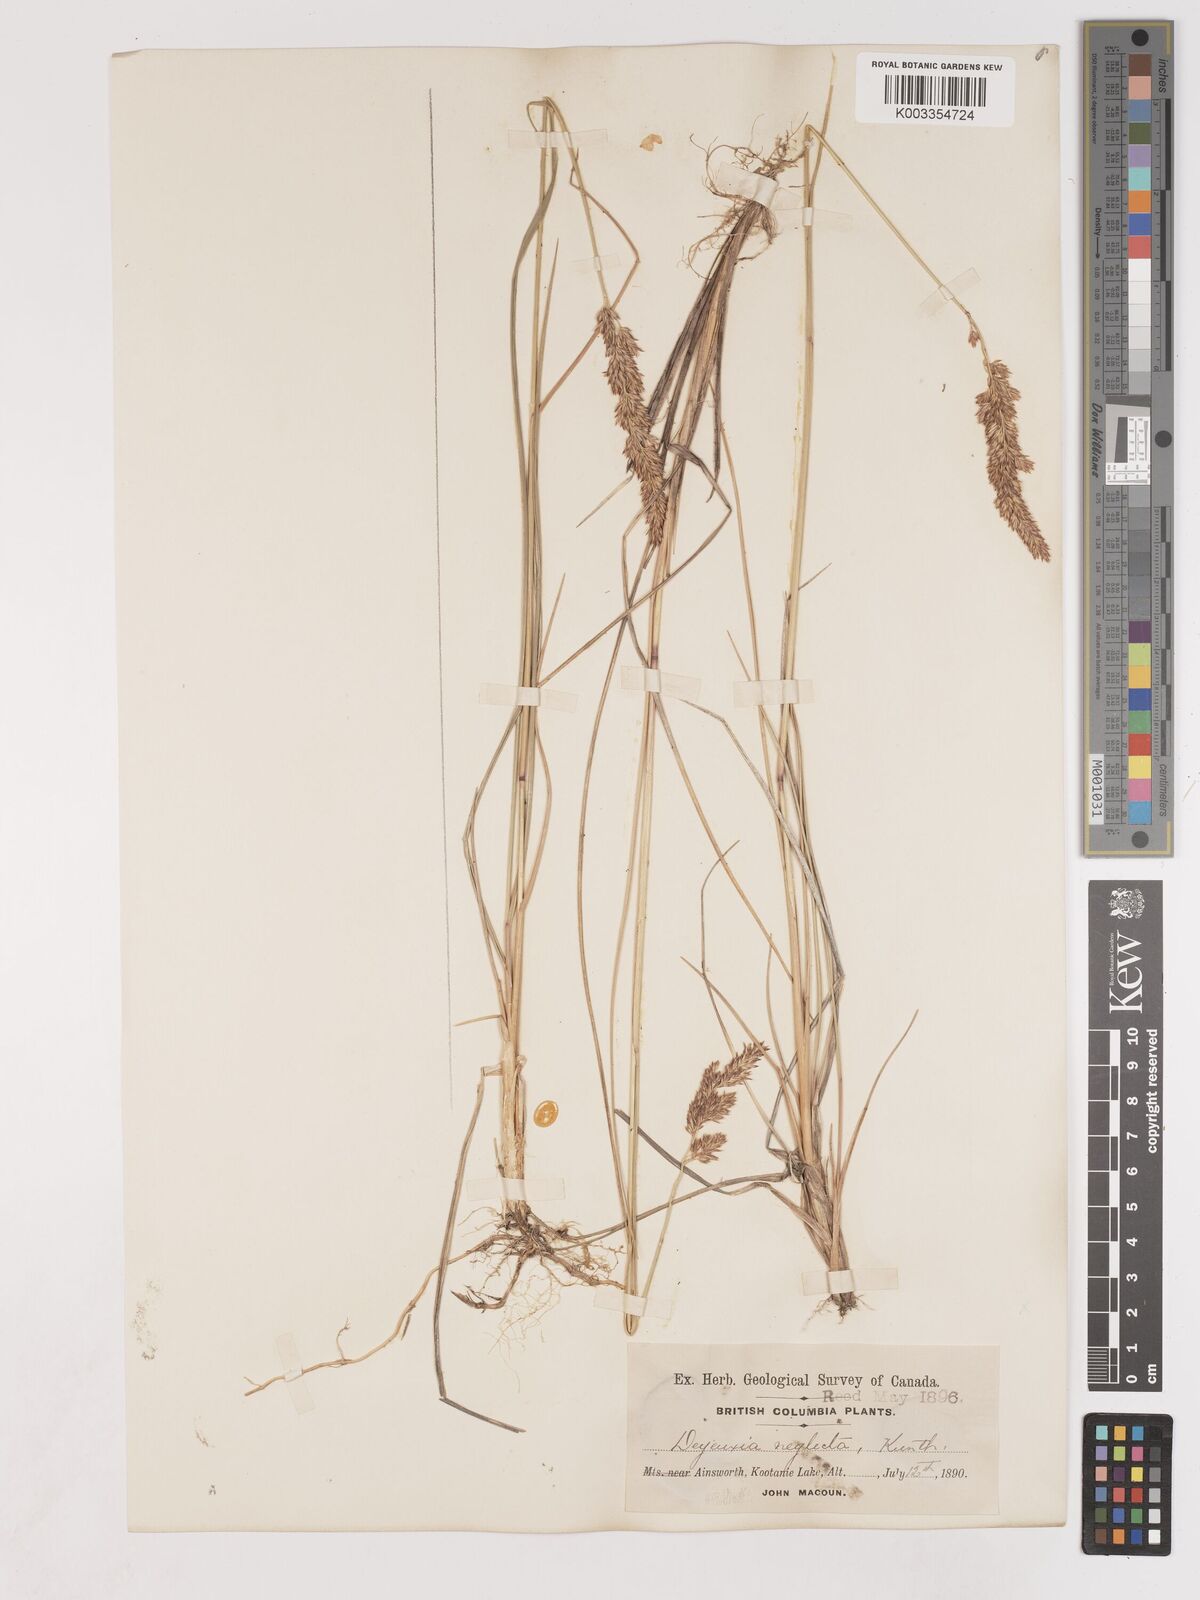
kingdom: Plantae
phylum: Tracheophyta
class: Liliopsida
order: Poales
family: Poaceae
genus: Cinnagrostis
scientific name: Cinnagrostis recta
